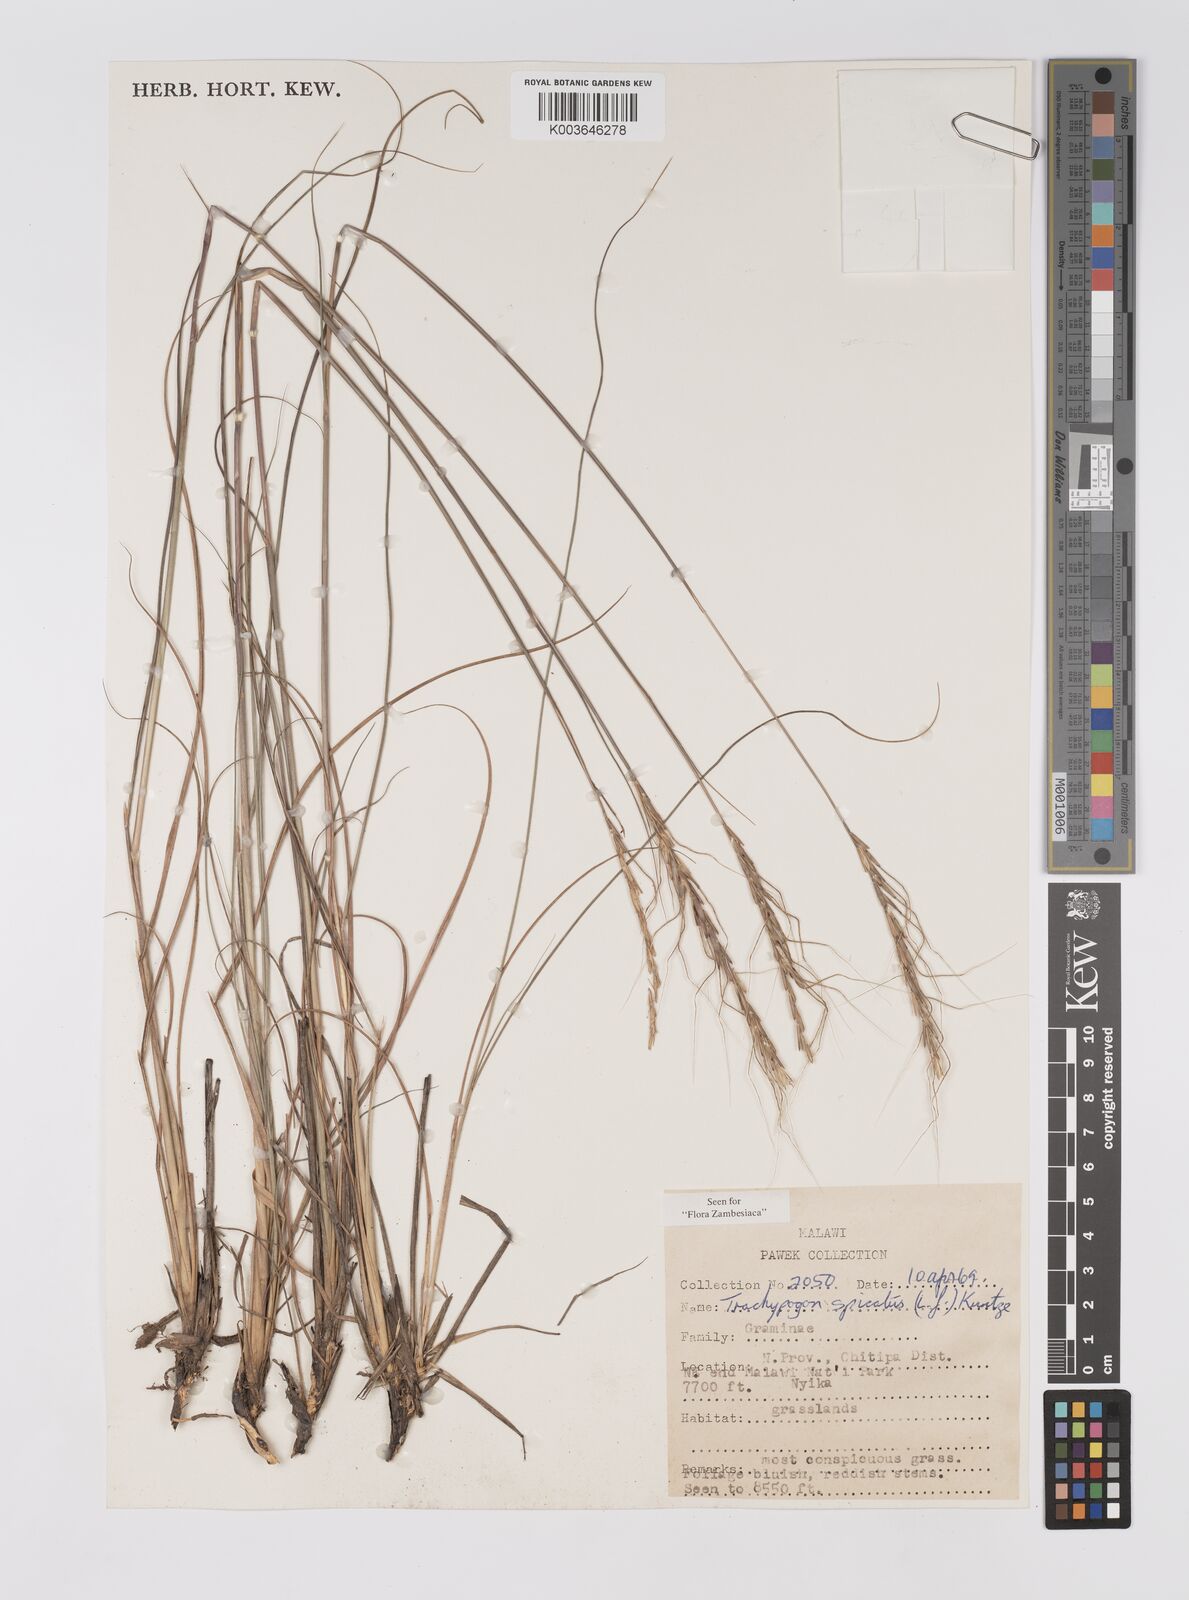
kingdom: Plantae
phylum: Tracheophyta
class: Liliopsida
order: Poales
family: Poaceae
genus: Trachypogon
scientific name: Trachypogon spicatus
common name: Crinkle-awn
